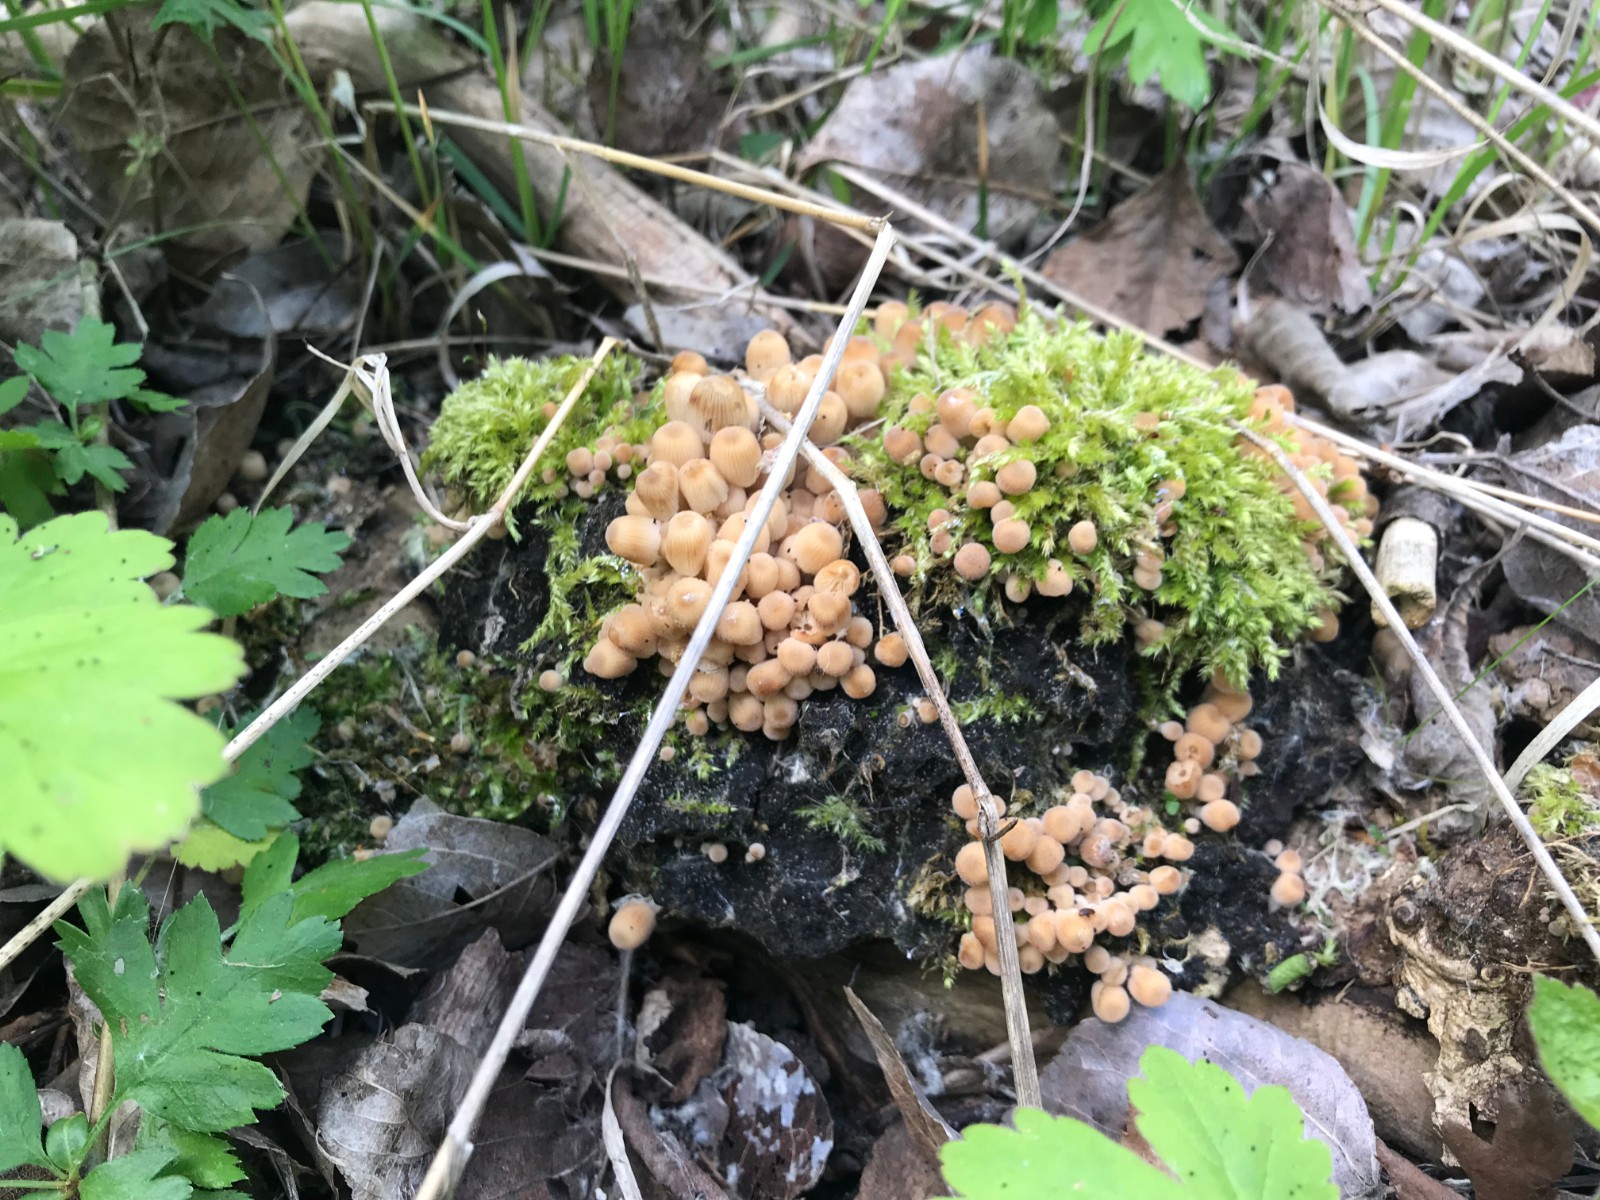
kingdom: Fungi
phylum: Basidiomycota
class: Agaricomycetes
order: Agaricales
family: Psathyrellaceae
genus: Coprinellus
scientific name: Coprinellus disseminatus
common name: bredsået blækhat
